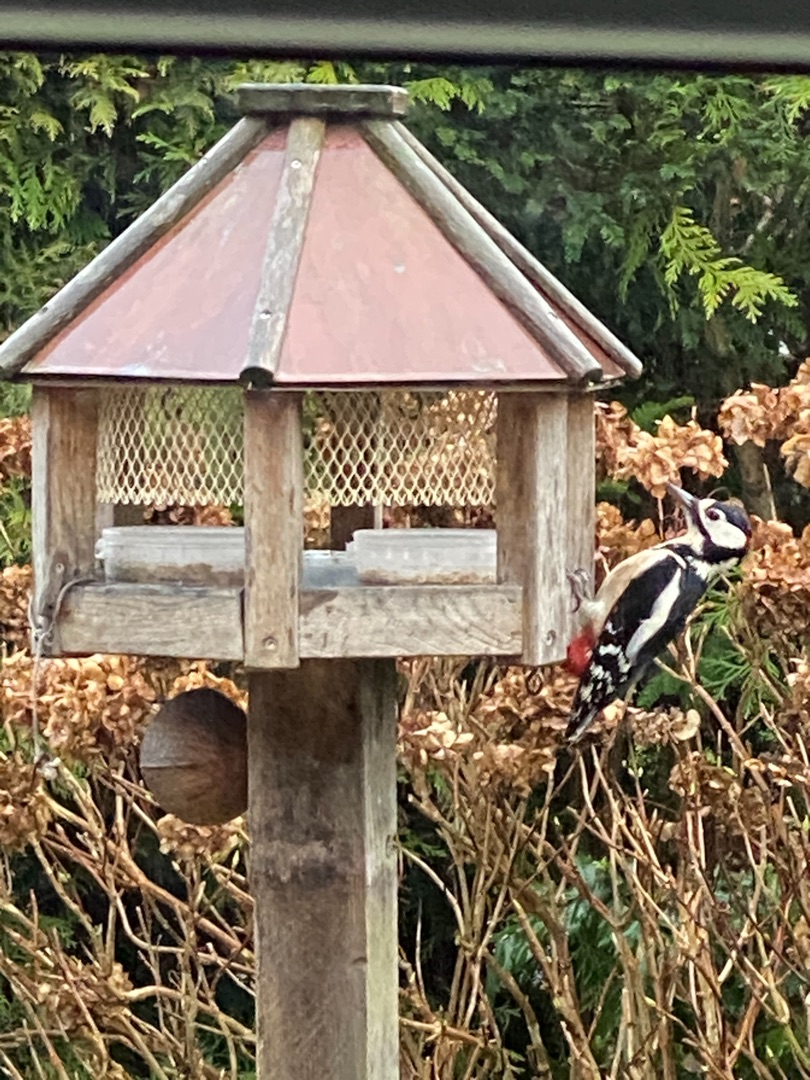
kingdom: Animalia
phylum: Chordata
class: Aves
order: Piciformes
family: Picidae
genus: Dendrocopos
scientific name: Dendrocopos major
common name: Stor flagspætte
